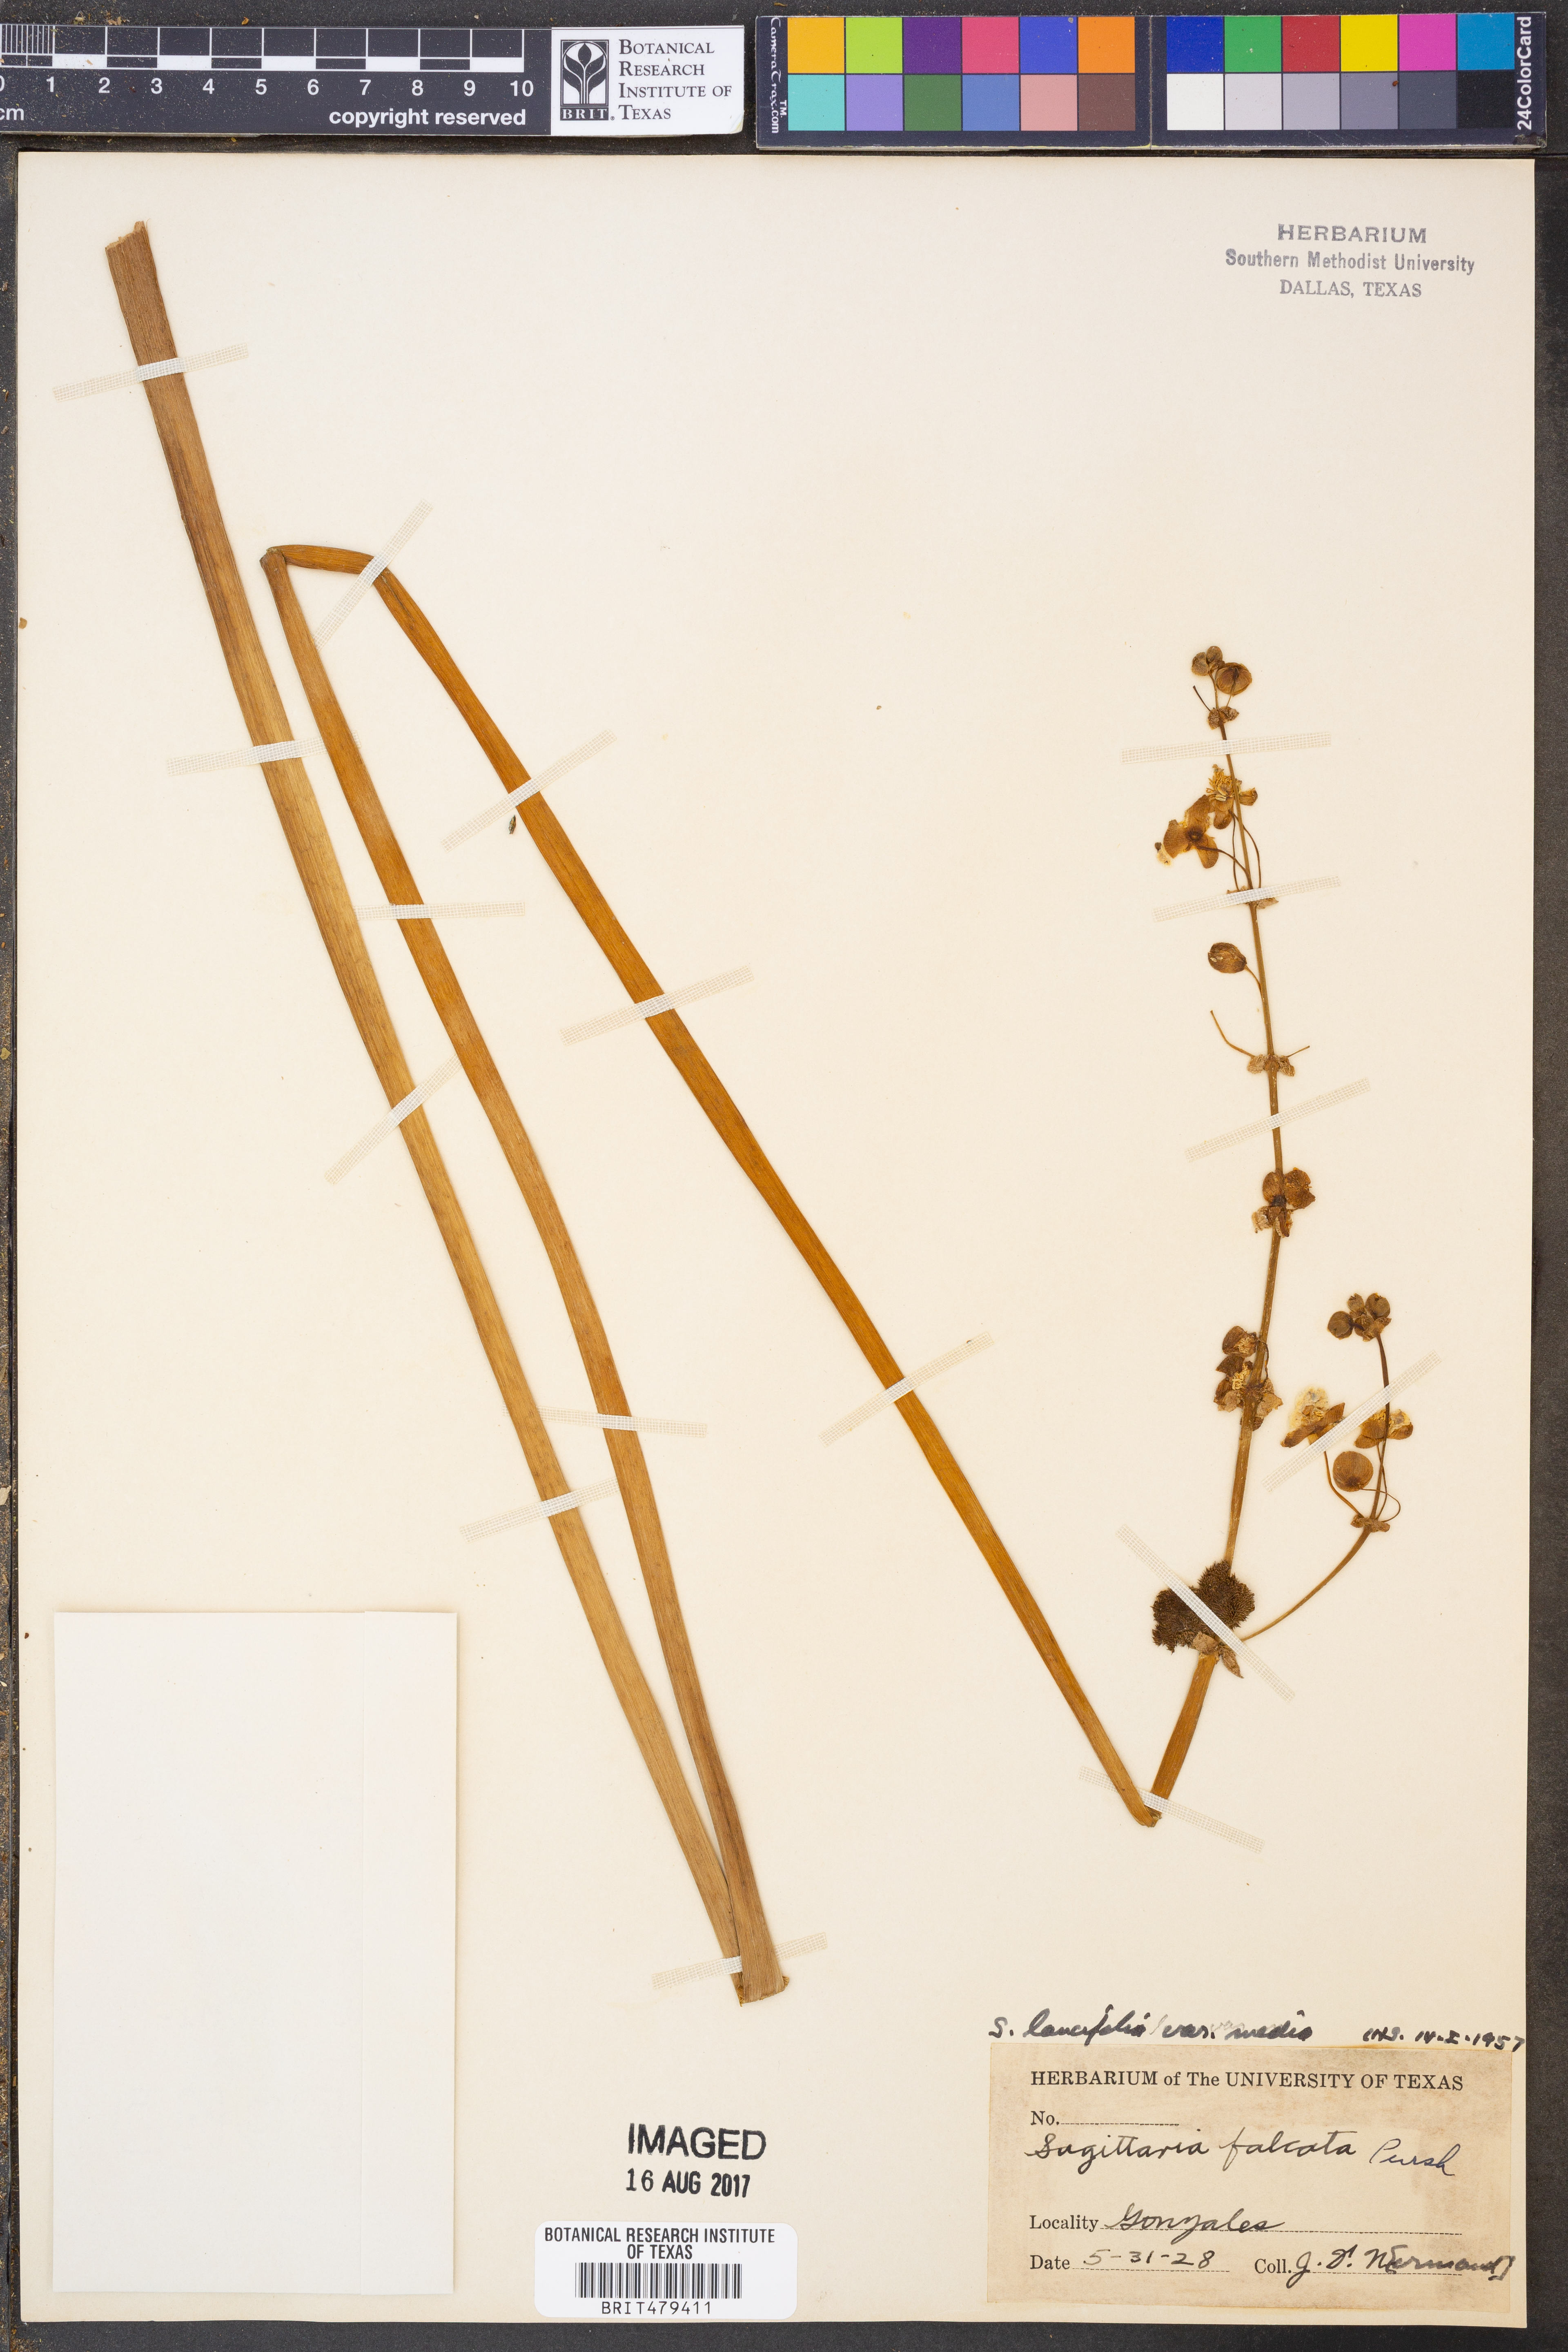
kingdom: Plantae
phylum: Tracheophyta
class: Liliopsida
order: Alismatales
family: Alismataceae
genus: Sagittaria
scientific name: Sagittaria lancifolia
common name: Lance-leaf arrowhead
